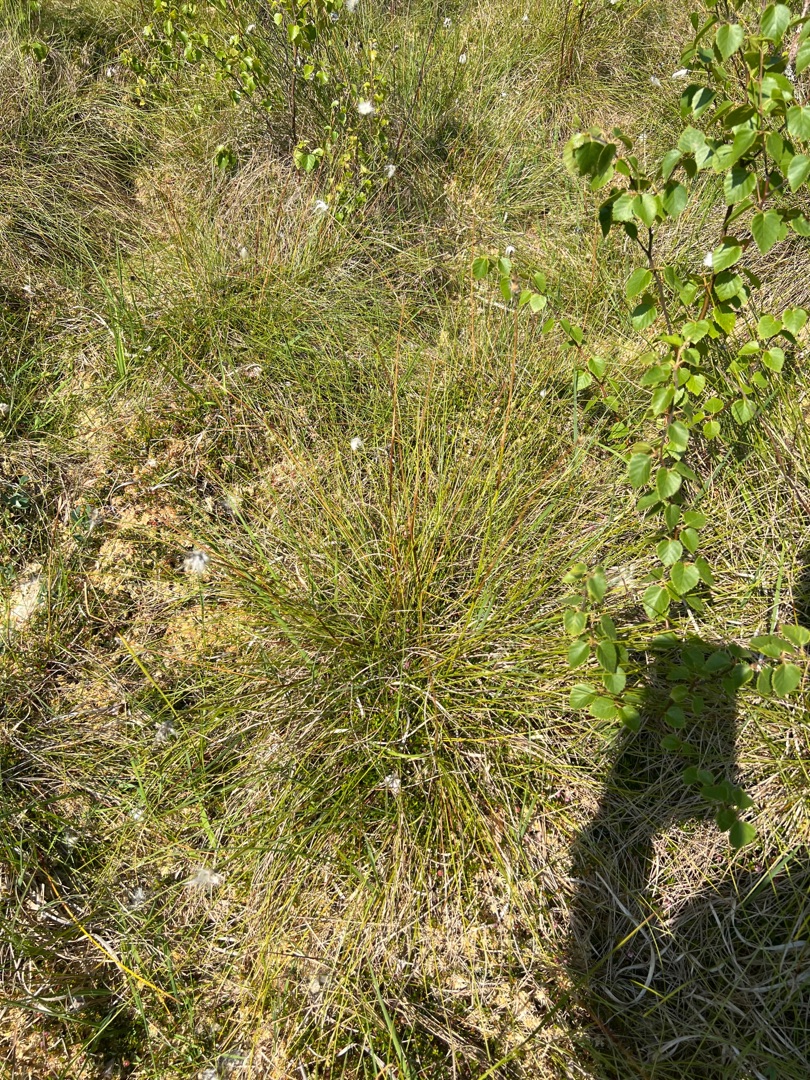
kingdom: Plantae
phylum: Tracheophyta
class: Liliopsida
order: Poales
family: Cyperaceae
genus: Eriophorum
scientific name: Eriophorum vaginatum
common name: Tue-kæruld
